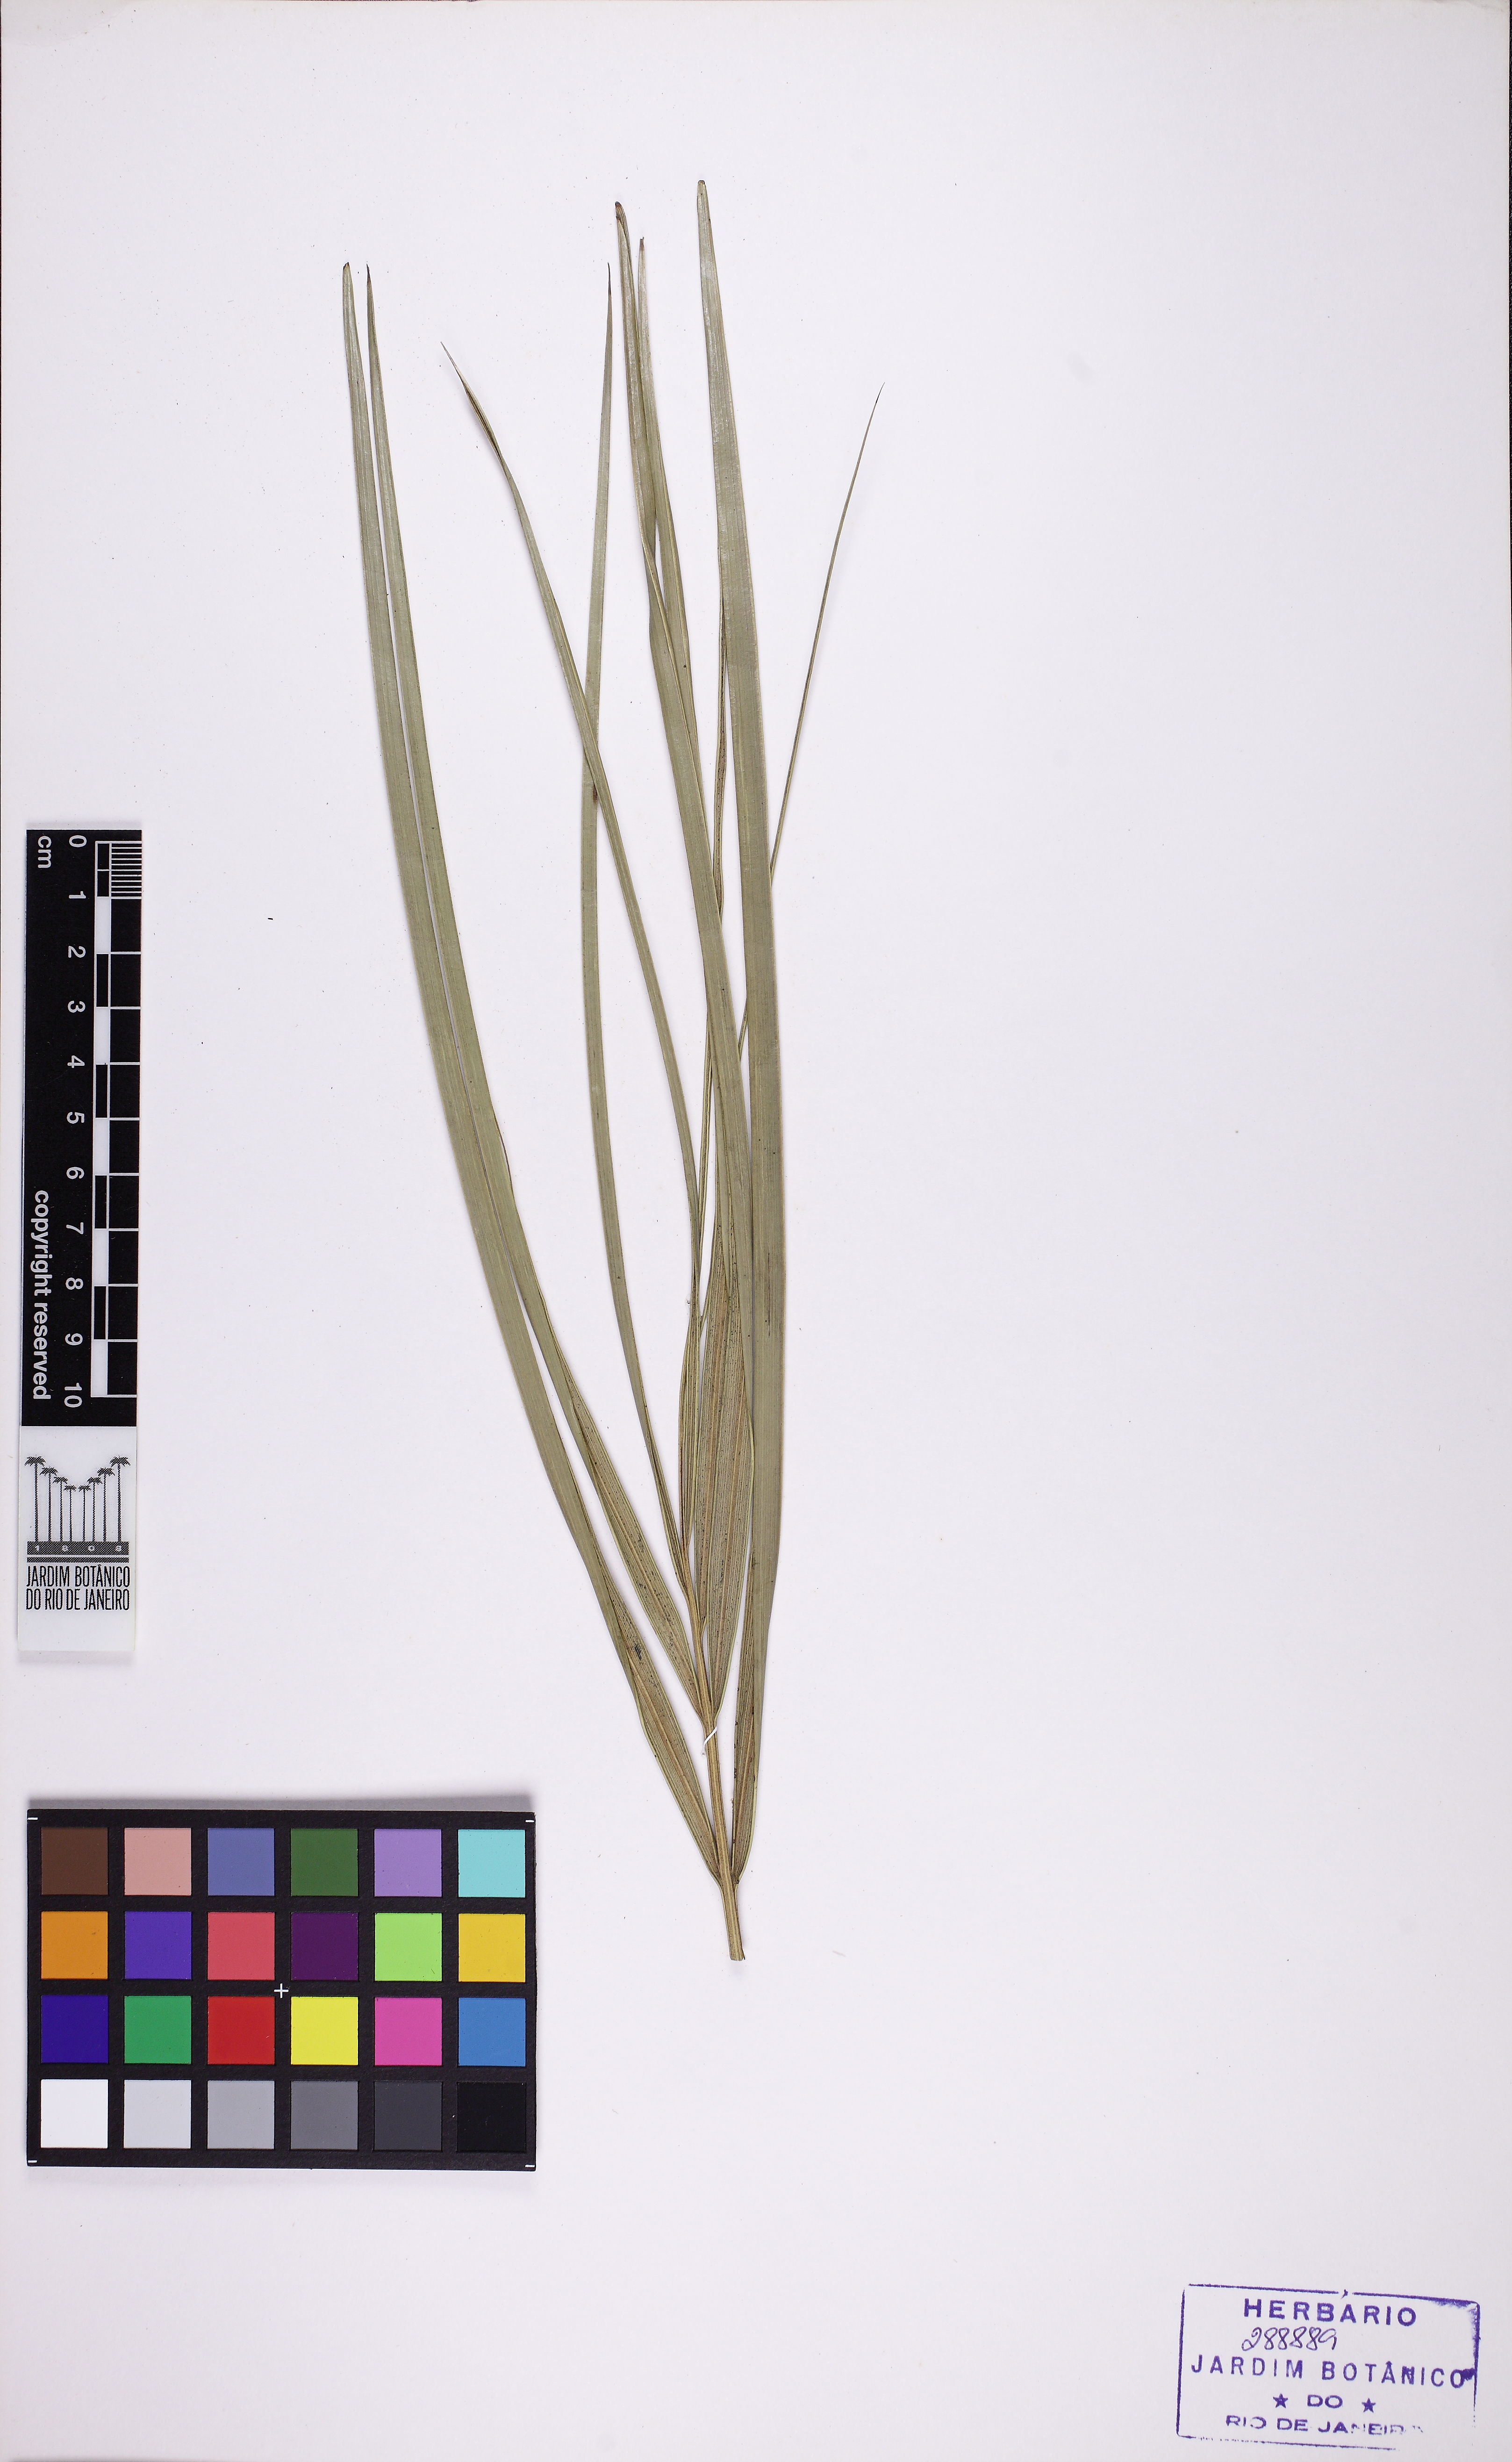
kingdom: Plantae
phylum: Tracheophyta
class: Liliopsida
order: Arecales
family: Arecaceae
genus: Astrocaryum
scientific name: Astrocaryum campestre
